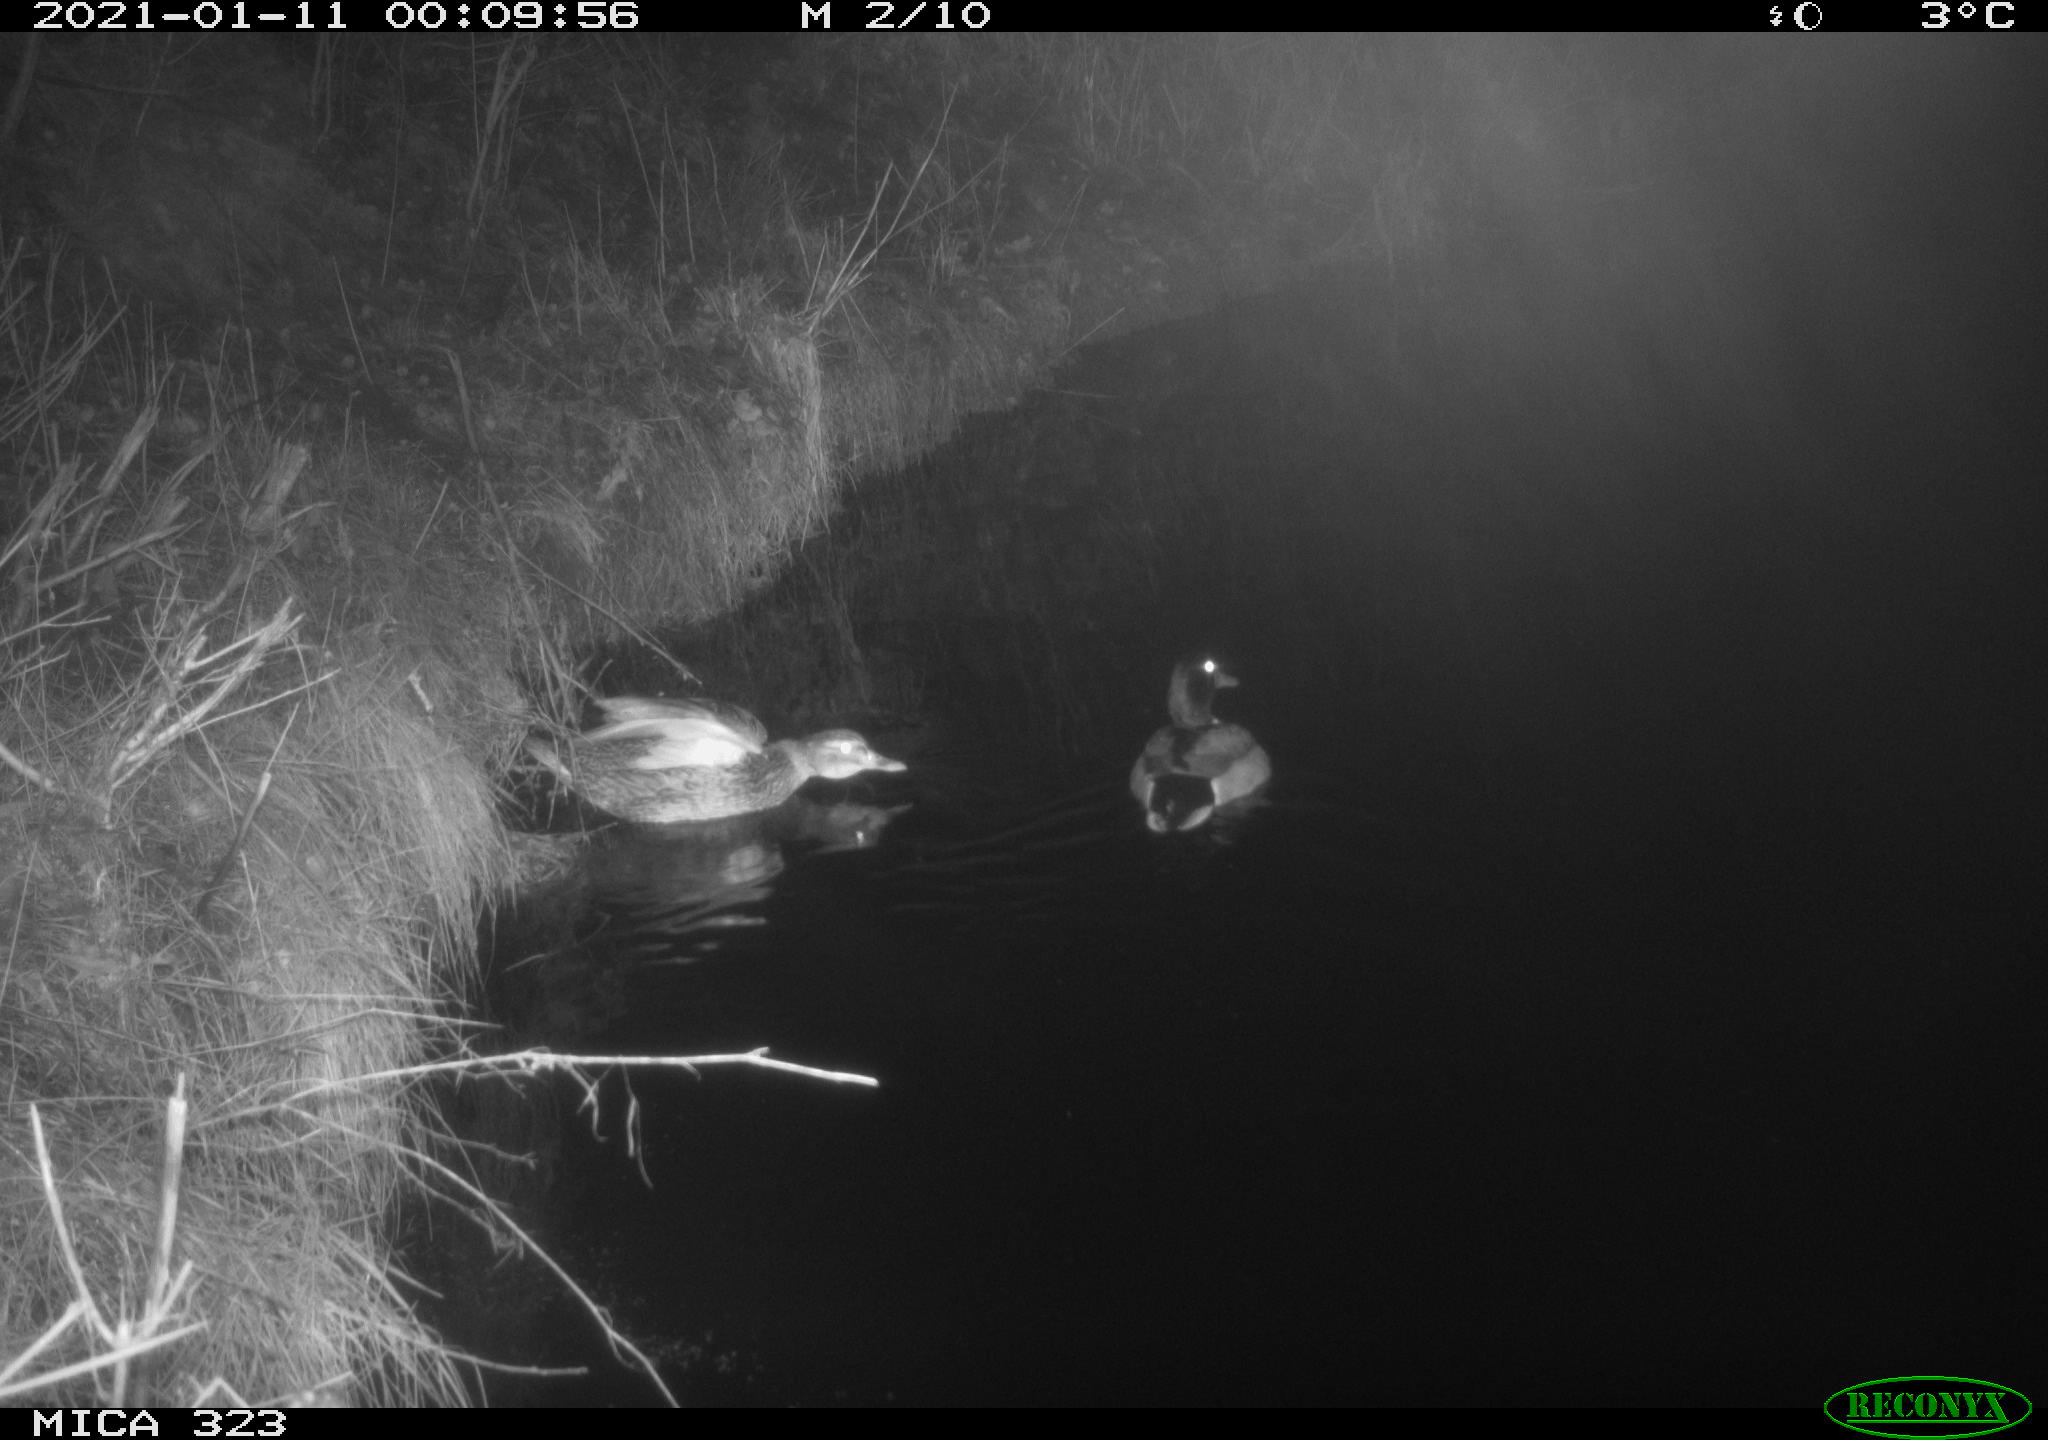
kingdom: Animalia
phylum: Chordata
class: Aves
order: Anseriformes
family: Anatidae
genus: Anas
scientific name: Anas platyrhynchos
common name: Mallard
